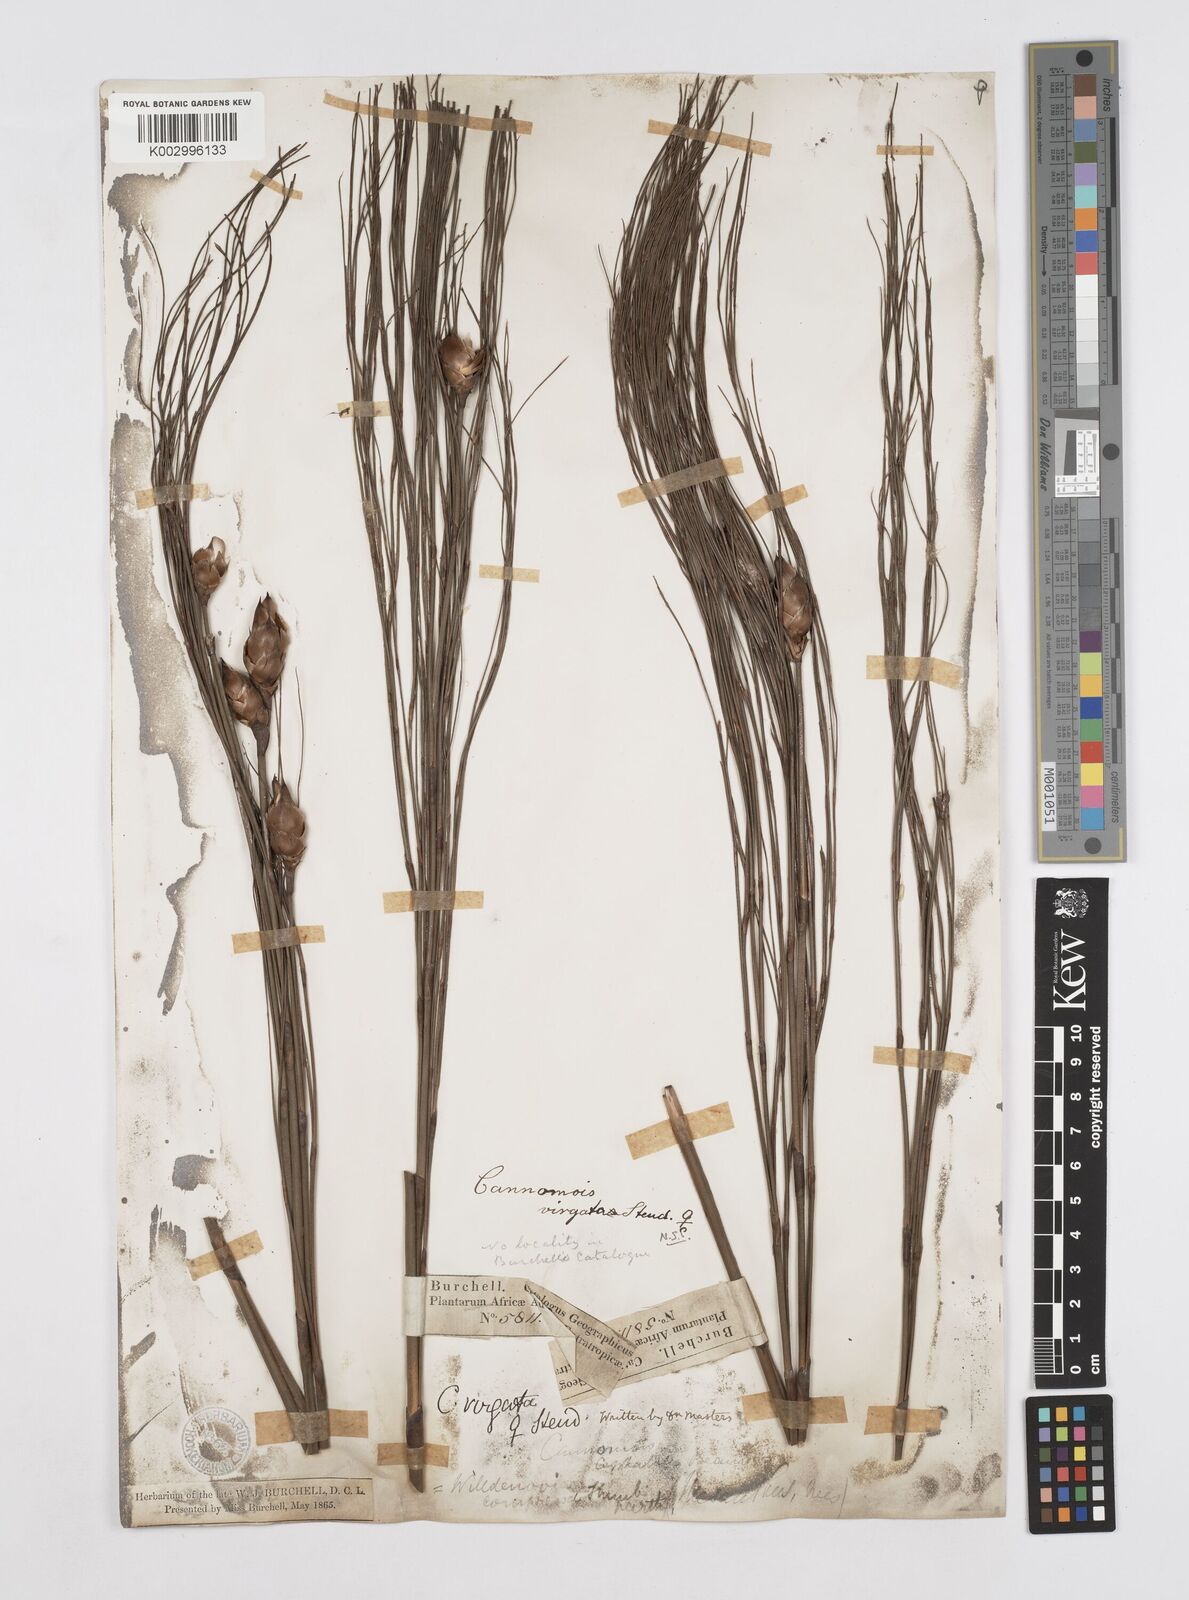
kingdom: Plantae
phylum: Tracheophyta
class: Liliopsida
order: Poales
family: Restionaceae
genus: Cannomois
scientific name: Cannomois virgata
